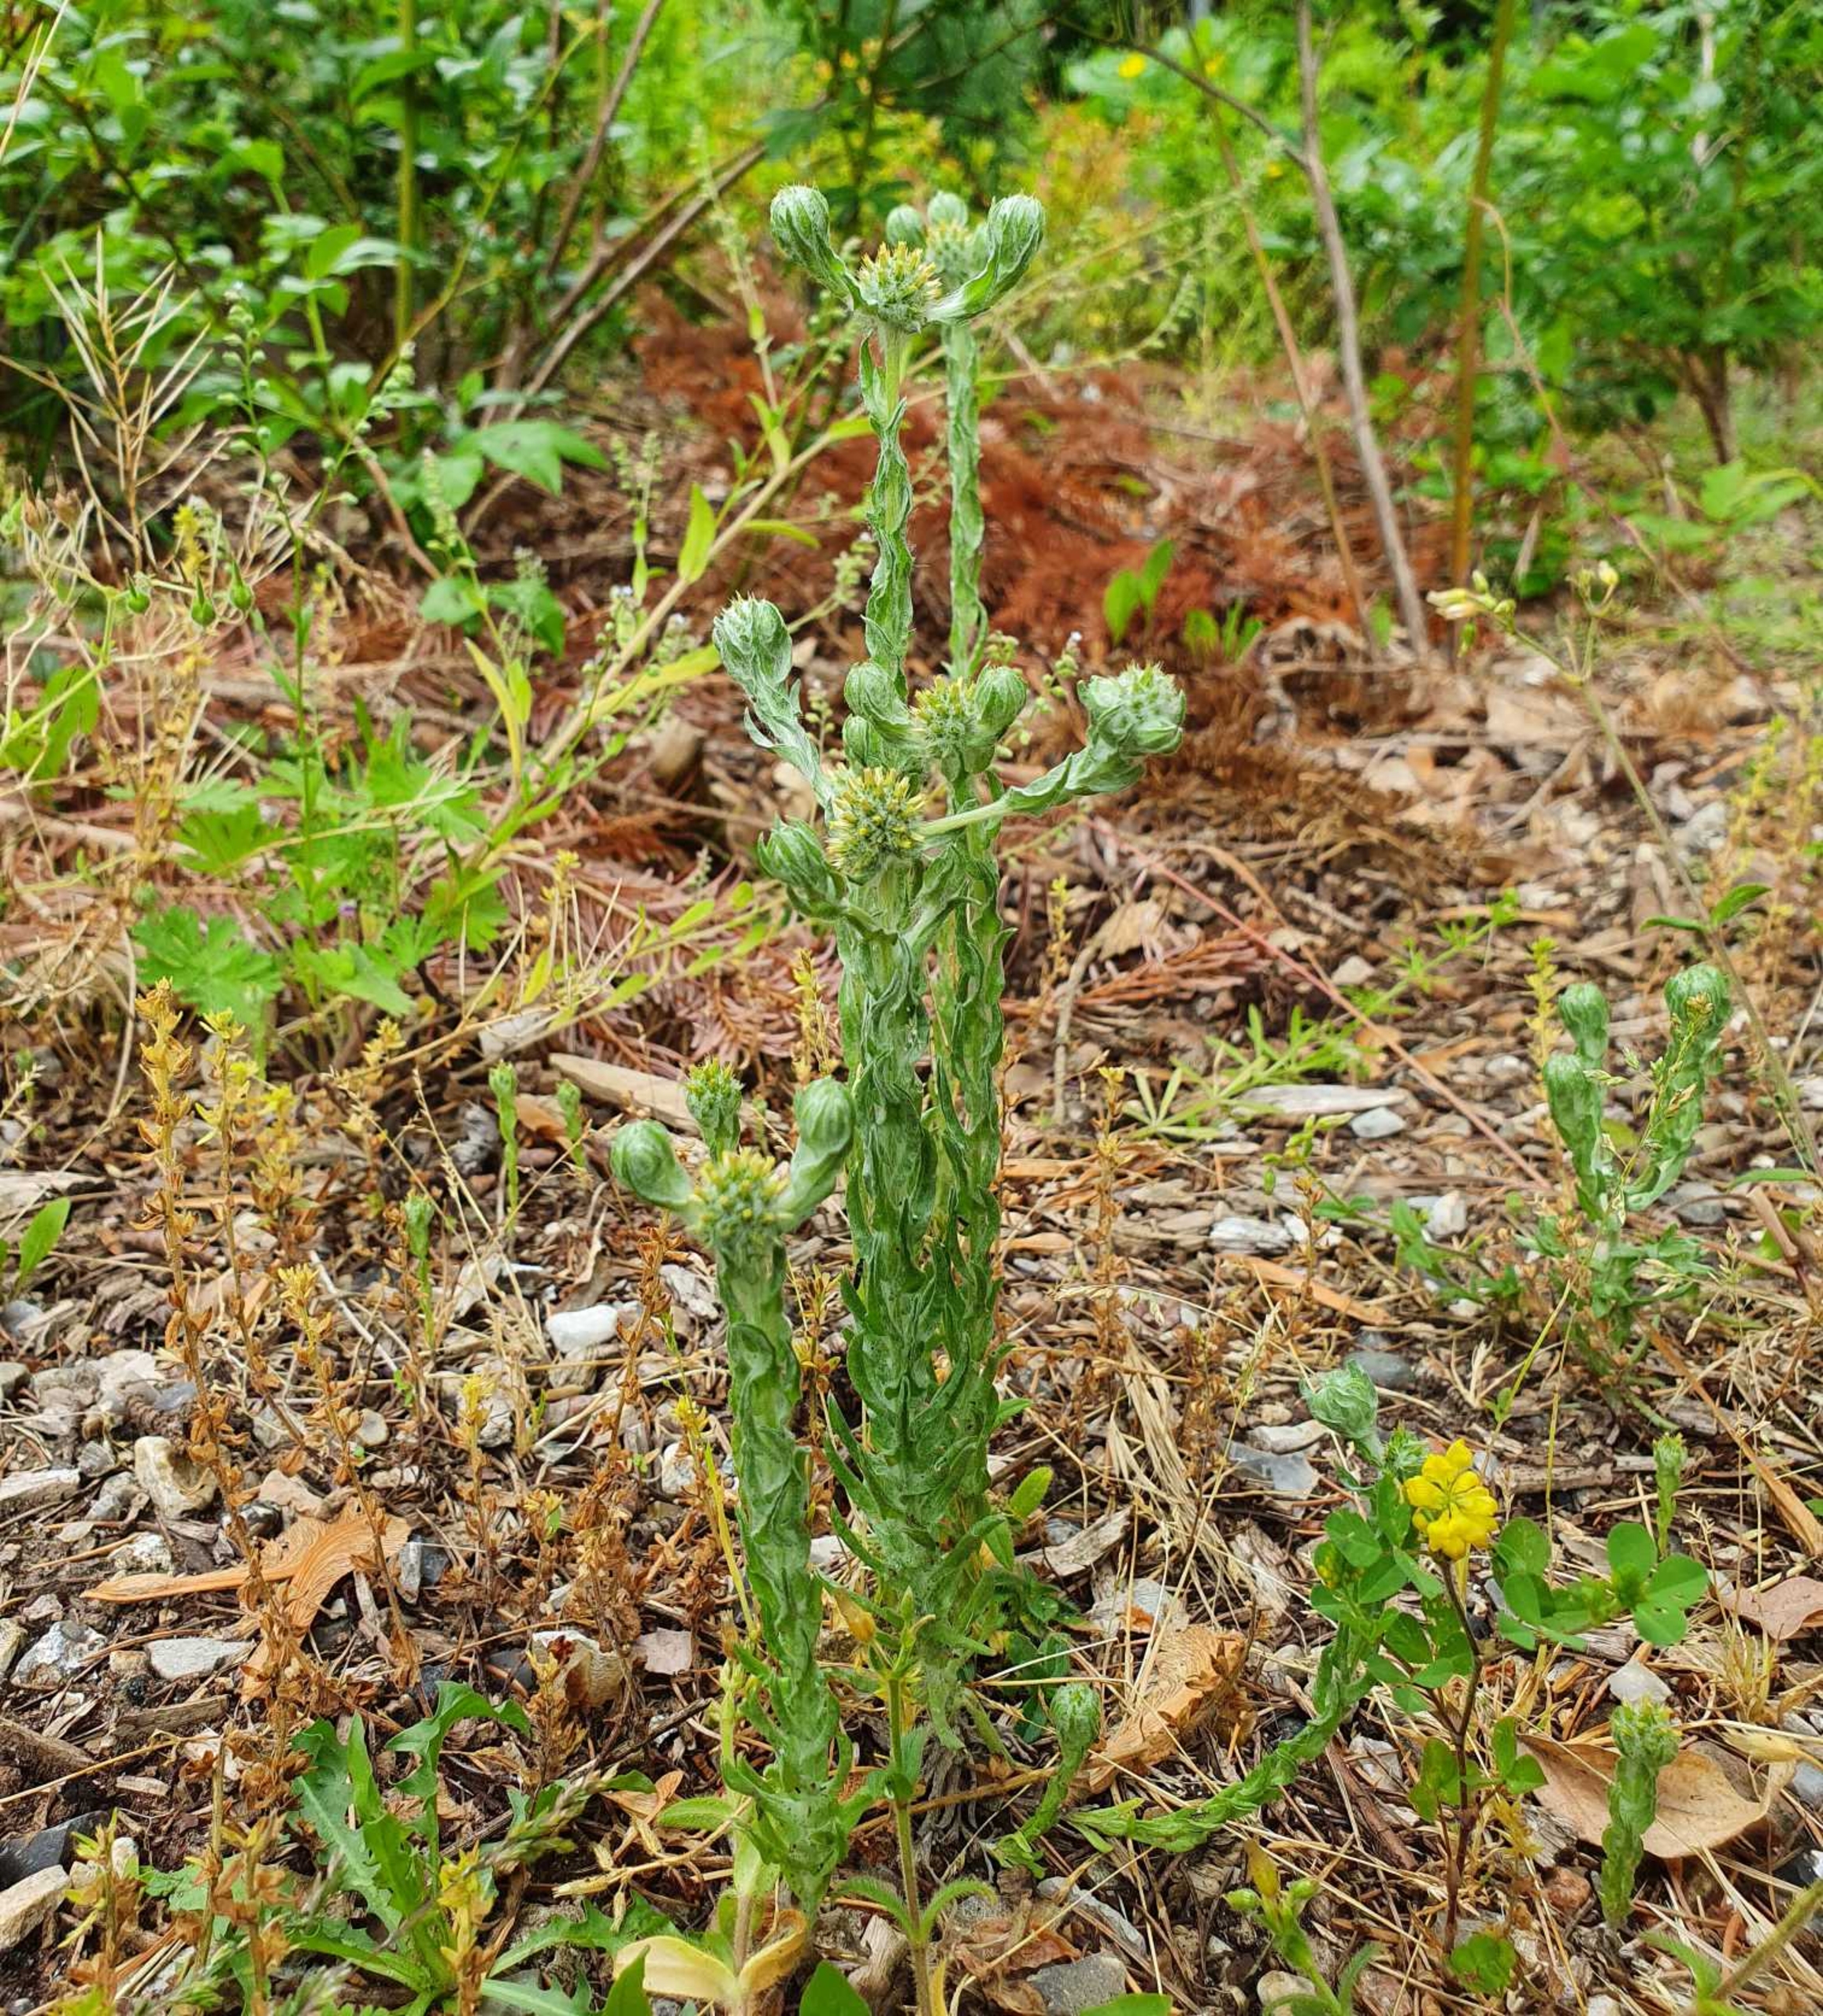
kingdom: Plantae
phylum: Tracheophyta
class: Magnoliopsida
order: Asterales
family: Asteraceae
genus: Filago
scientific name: Filago germanica
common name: Kugle-museurt
